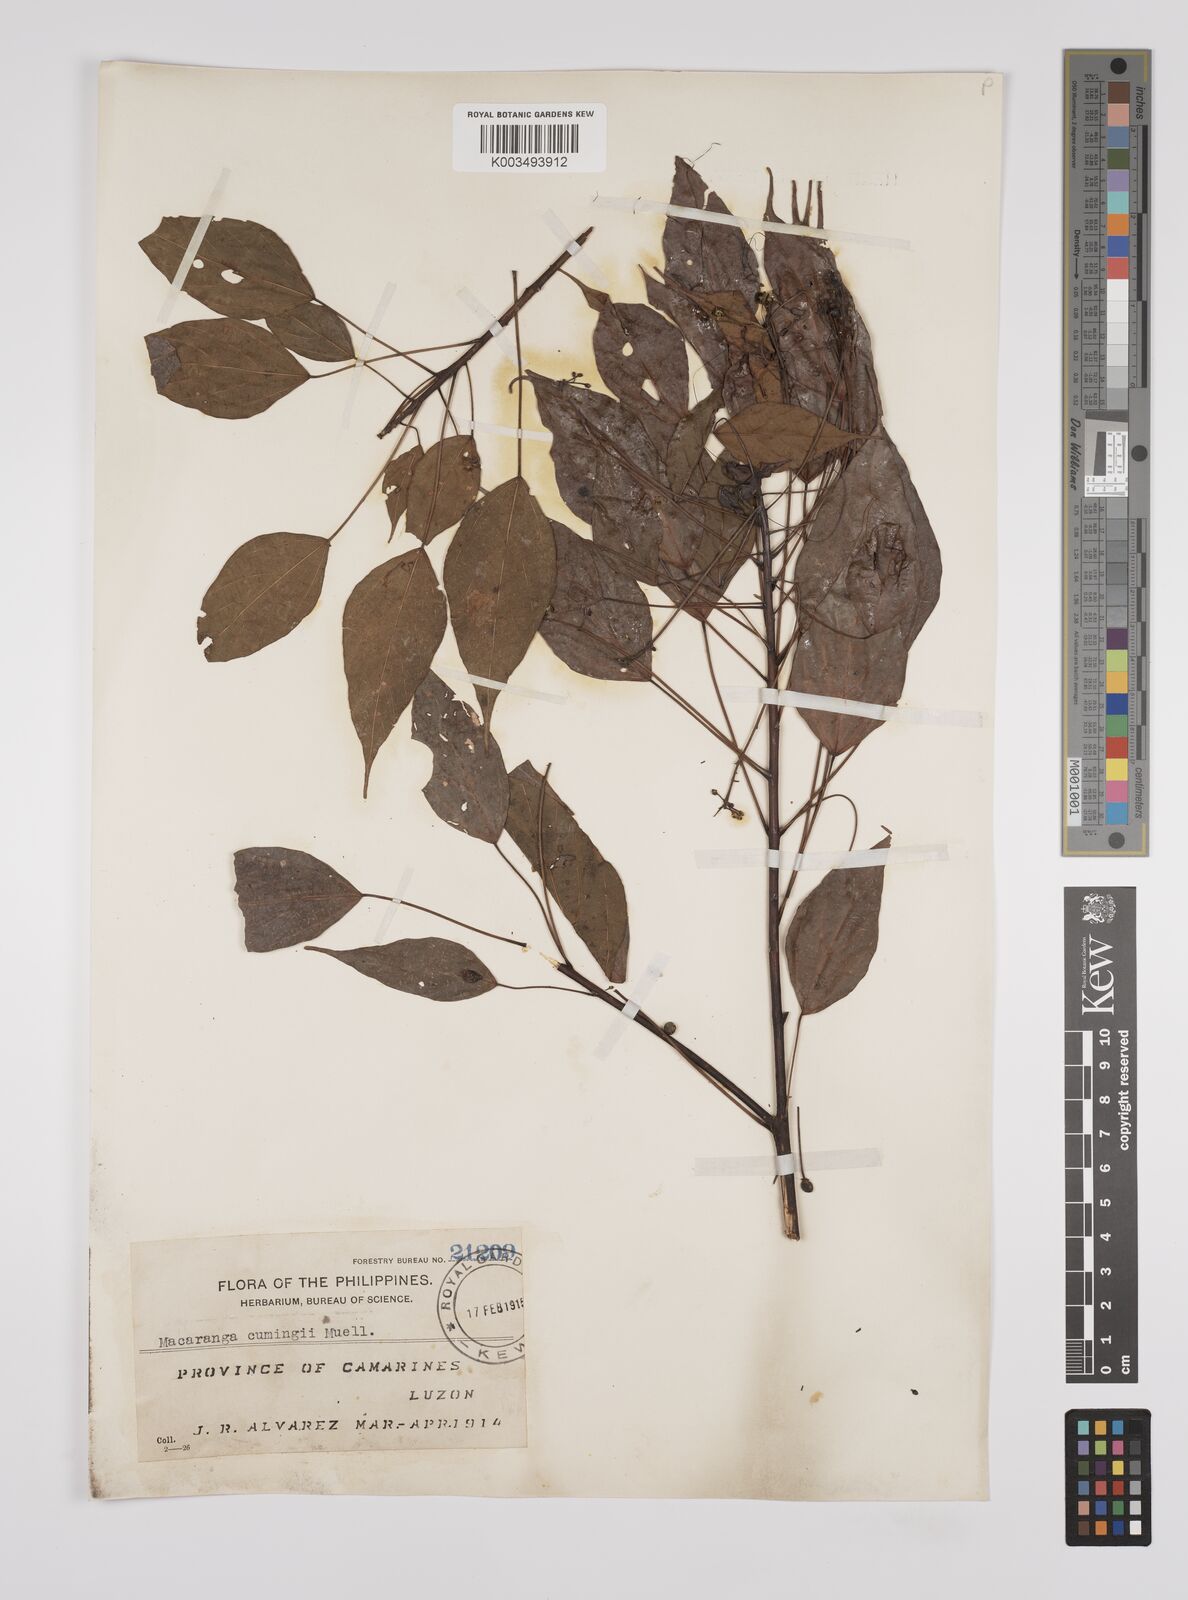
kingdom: Plantae
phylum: Tracheophyta
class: Magnoliopsida
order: Malpighiales
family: Euphorbiaceae
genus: Macaranga
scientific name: Macaranga cumingii
